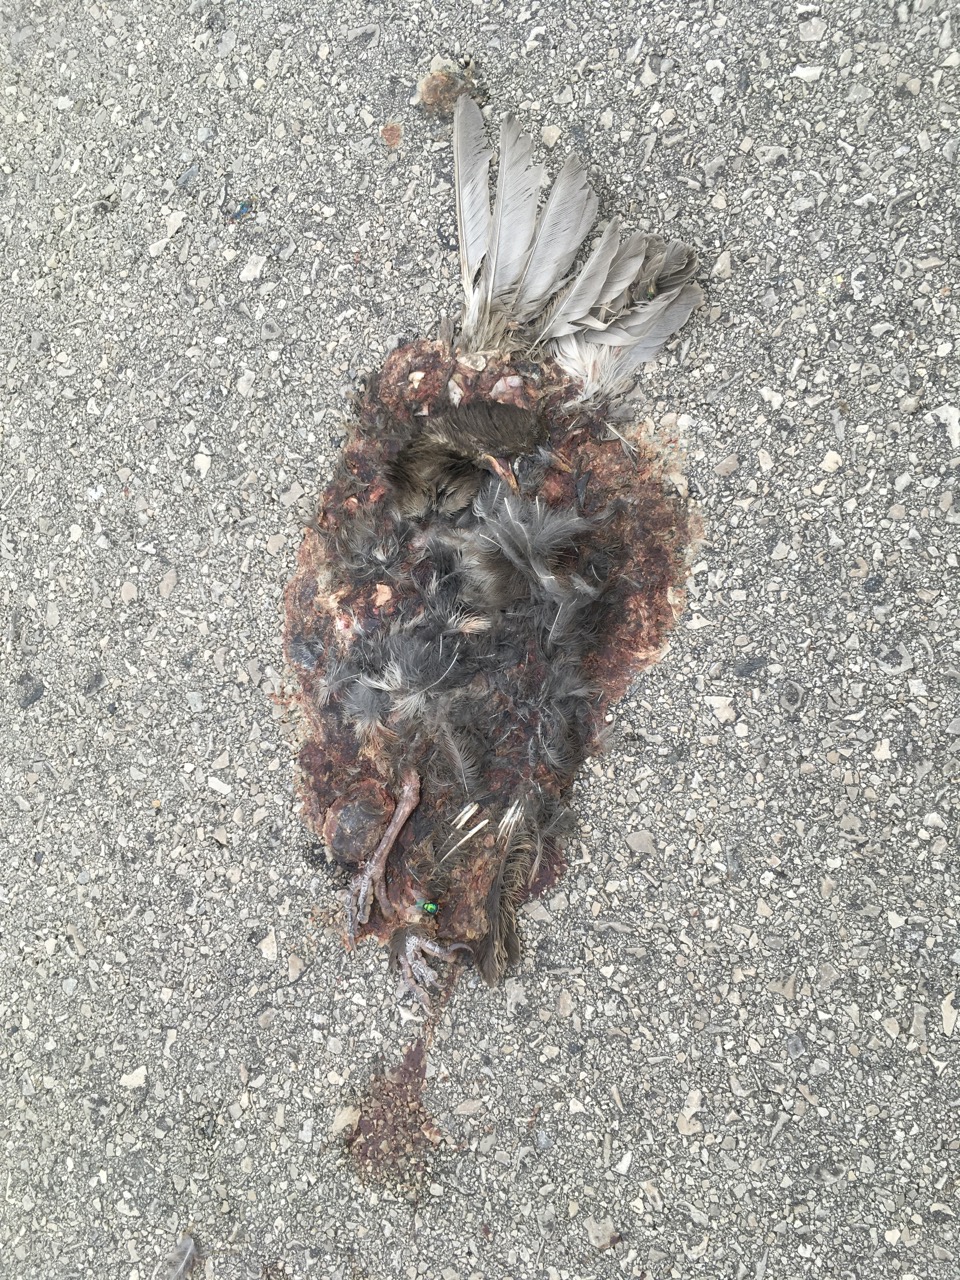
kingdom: Animalia
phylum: Chordata
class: Aves
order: Passeriformes
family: Turdidae
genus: Turdus
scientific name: Turdus merula
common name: Common blackbird
